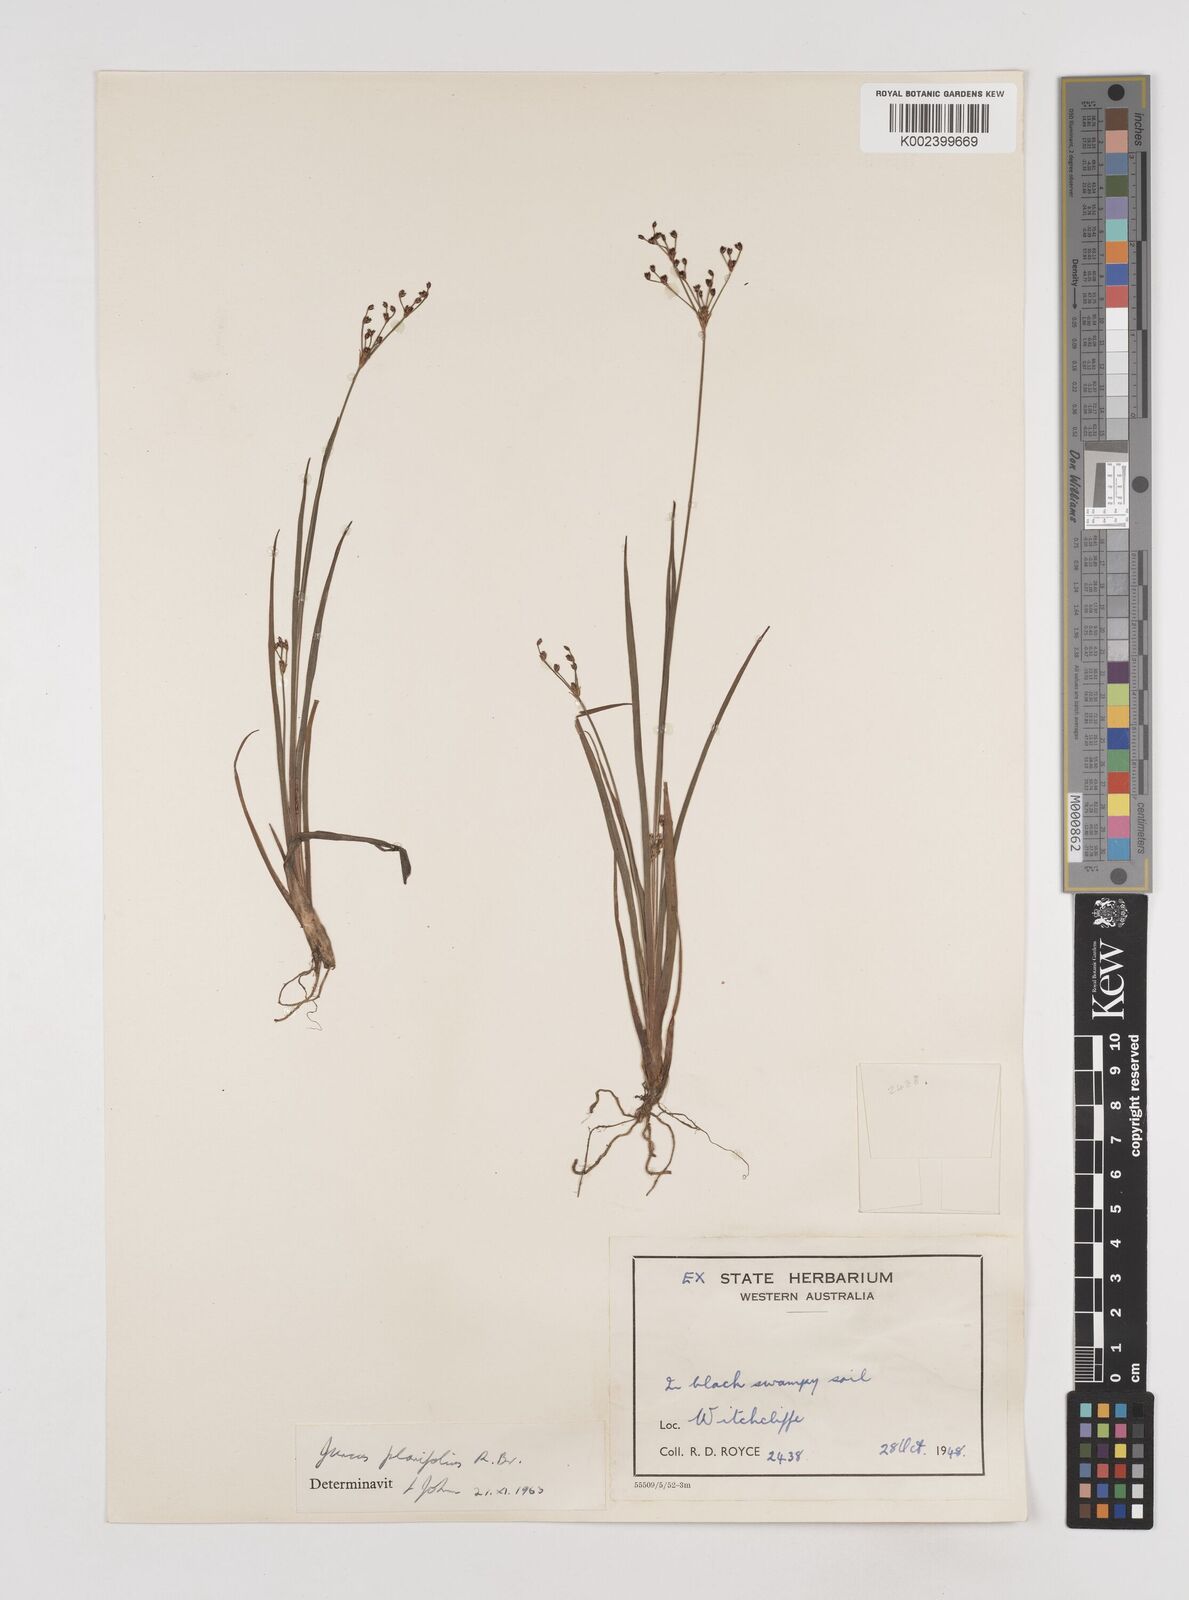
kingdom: Plantae
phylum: Tracheophyta
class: Liliopsida
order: Poales
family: Juncaceae
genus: Juncus
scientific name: Juncus planifolius
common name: Broadleaf rush
